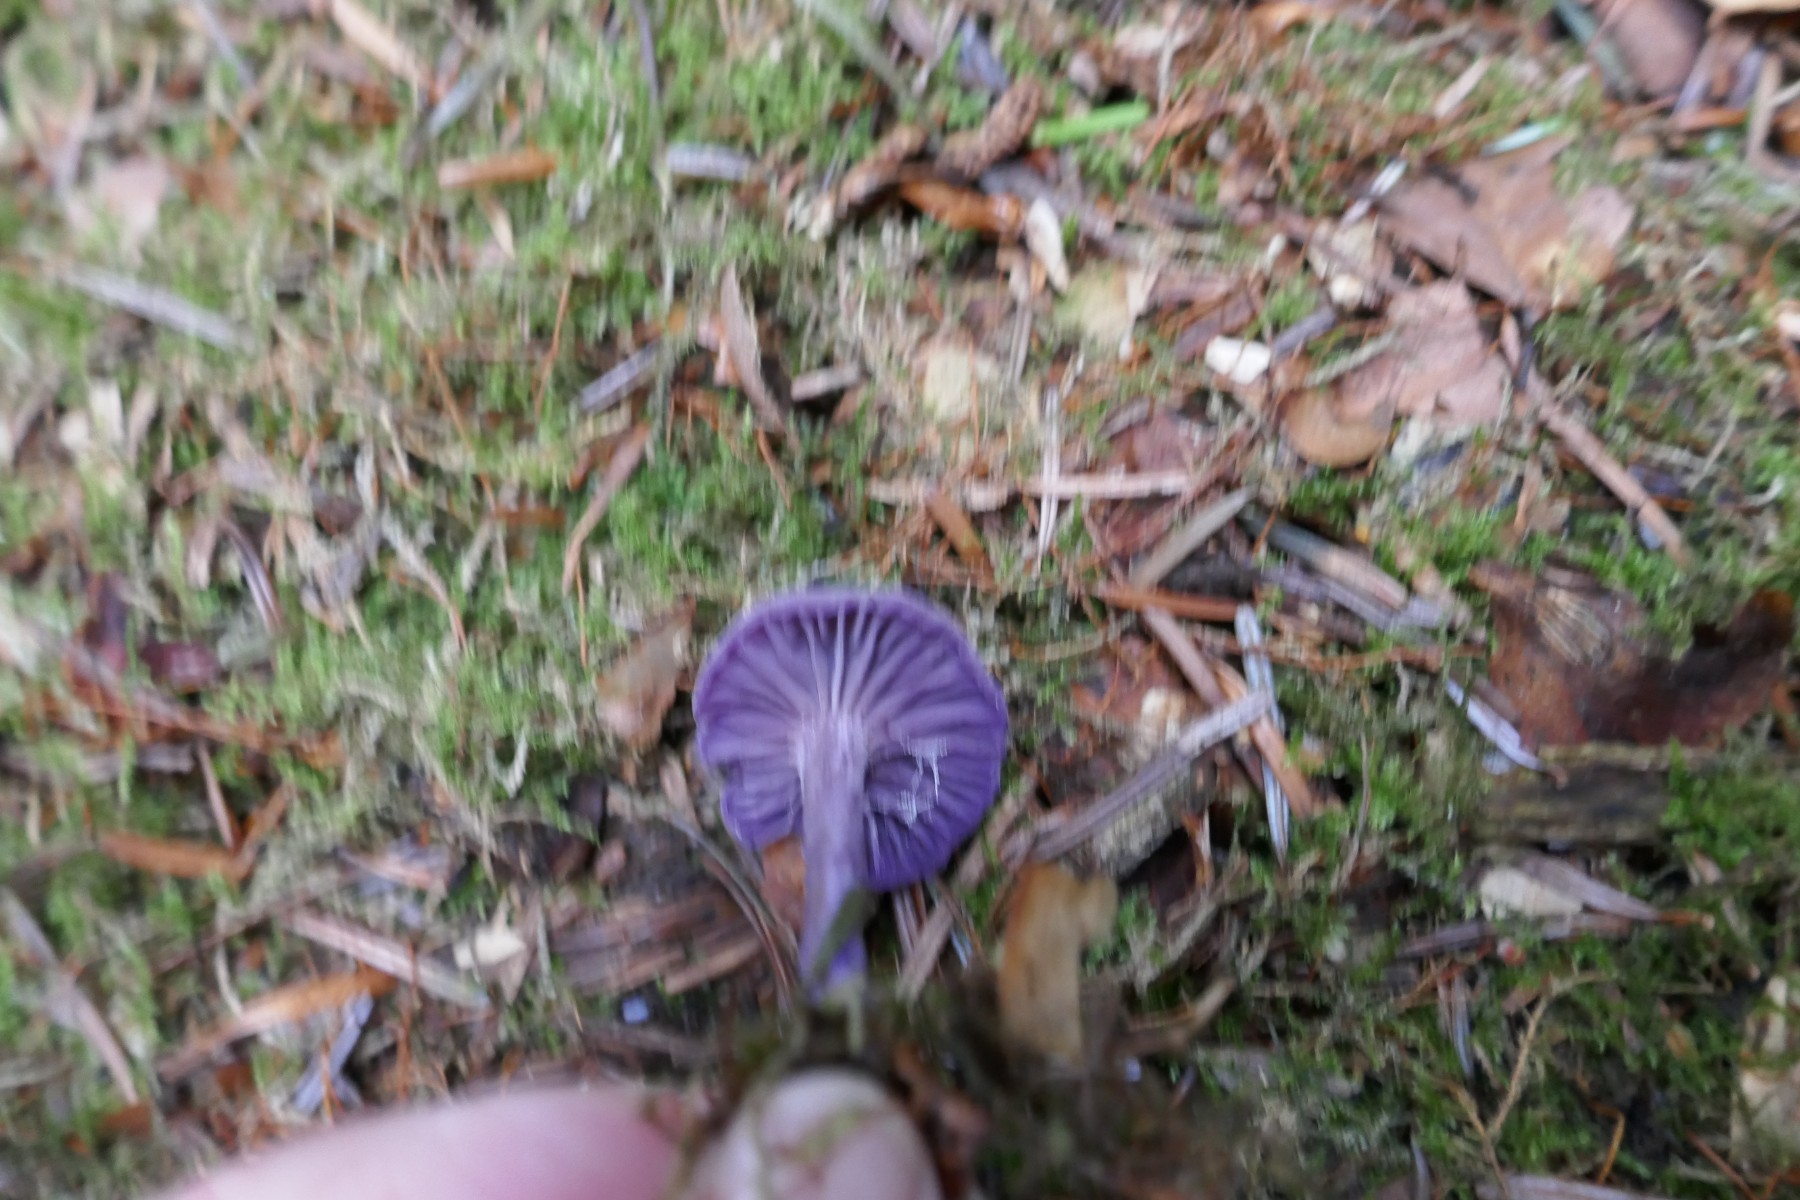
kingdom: Fungi
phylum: Basidiomycota
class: Agaricomycetes
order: Agaricales
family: Hydnangiaceae
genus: Laccaria
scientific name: Laccaria amethystina
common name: violet ametysthat
